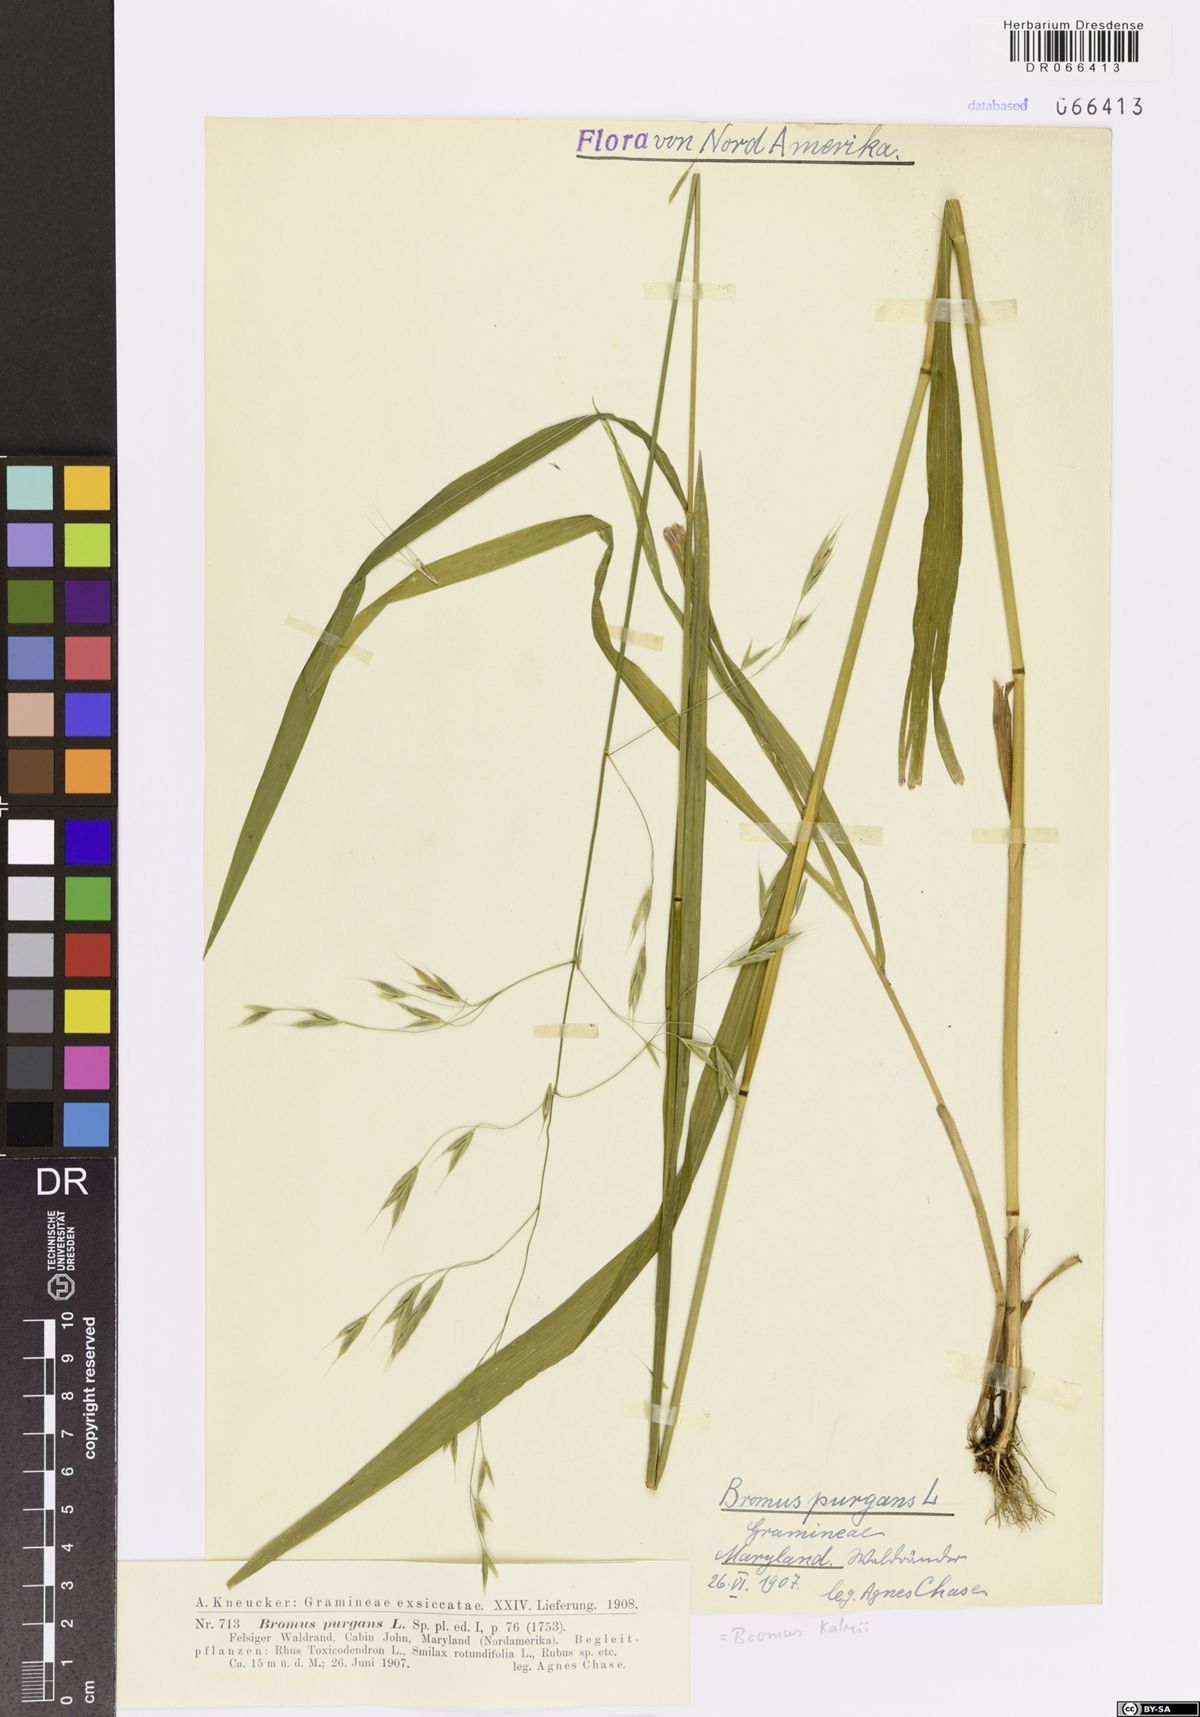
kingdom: Plantae
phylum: Tracheophyta
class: Liliopsida
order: Poales
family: Poaceae
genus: Bromus
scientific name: Bromus kalmii
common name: Kalm brome
